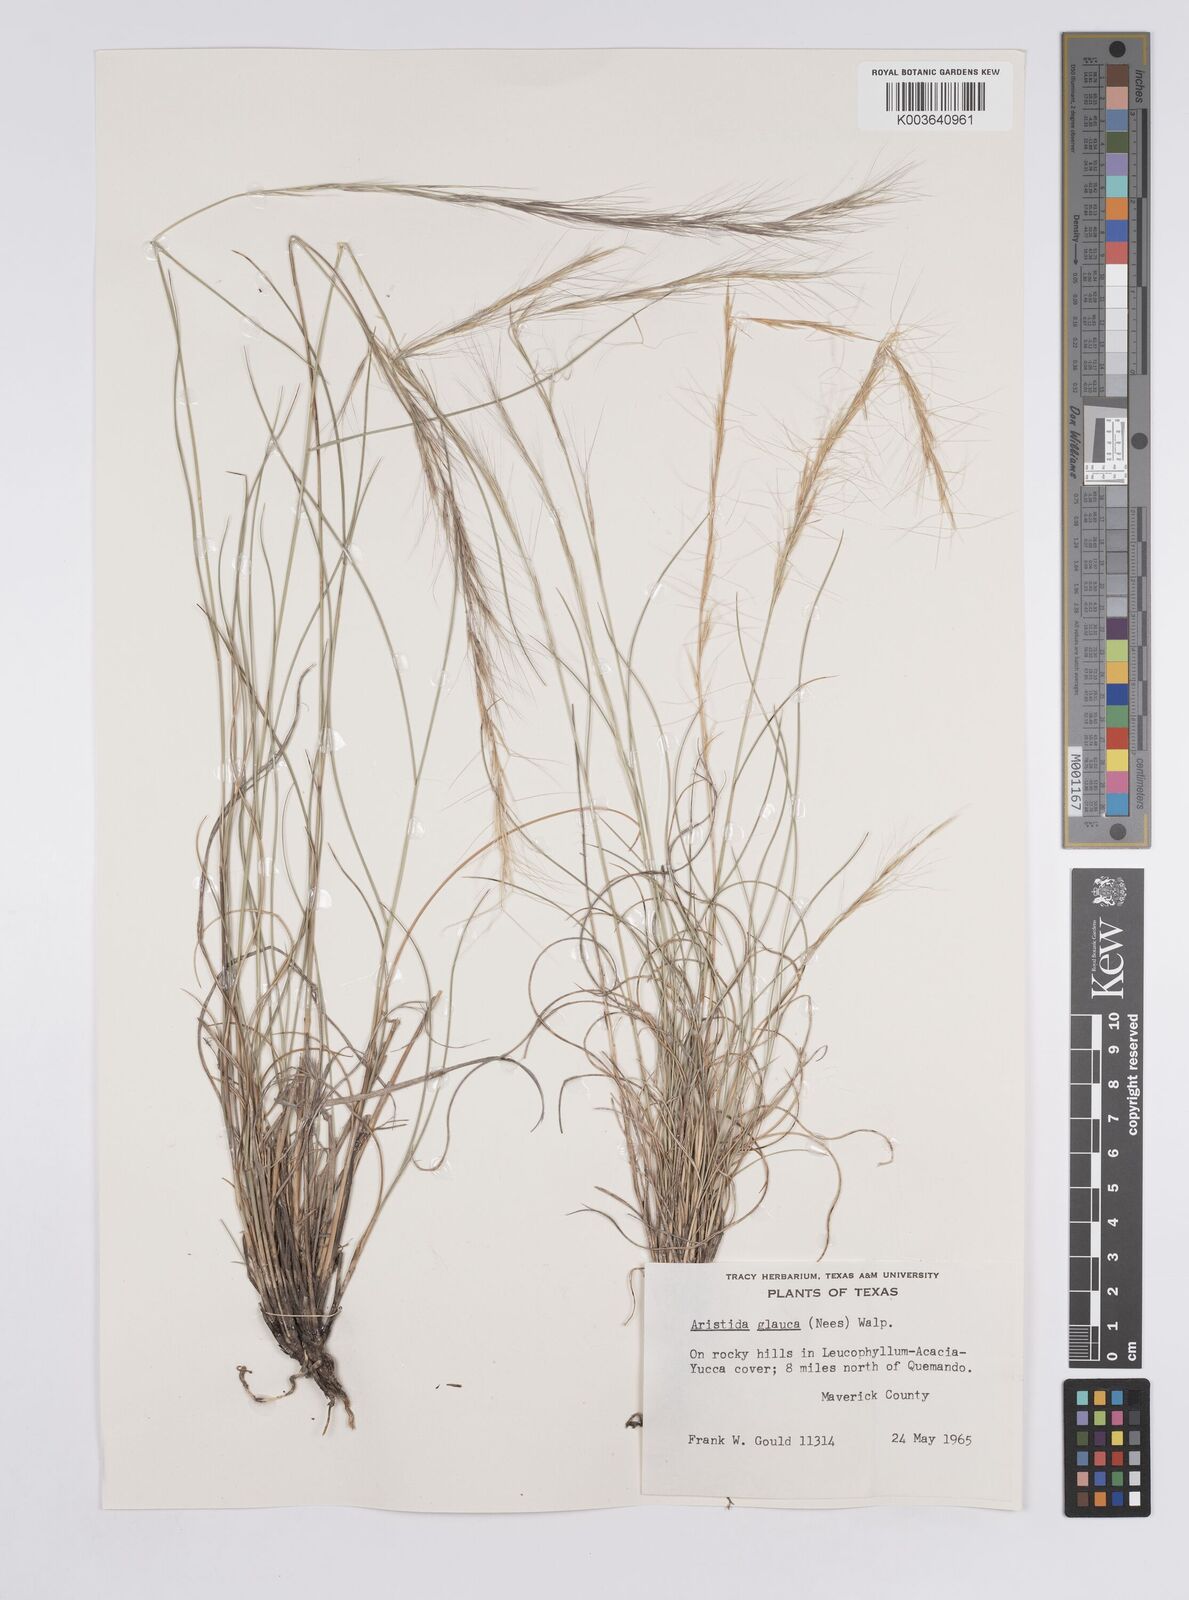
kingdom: Plantae
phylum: Tracheophyta
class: Liliopsida
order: Poales
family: Poaceae
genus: Aristida
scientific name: Aristida purpurea
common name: Purple threeawn
